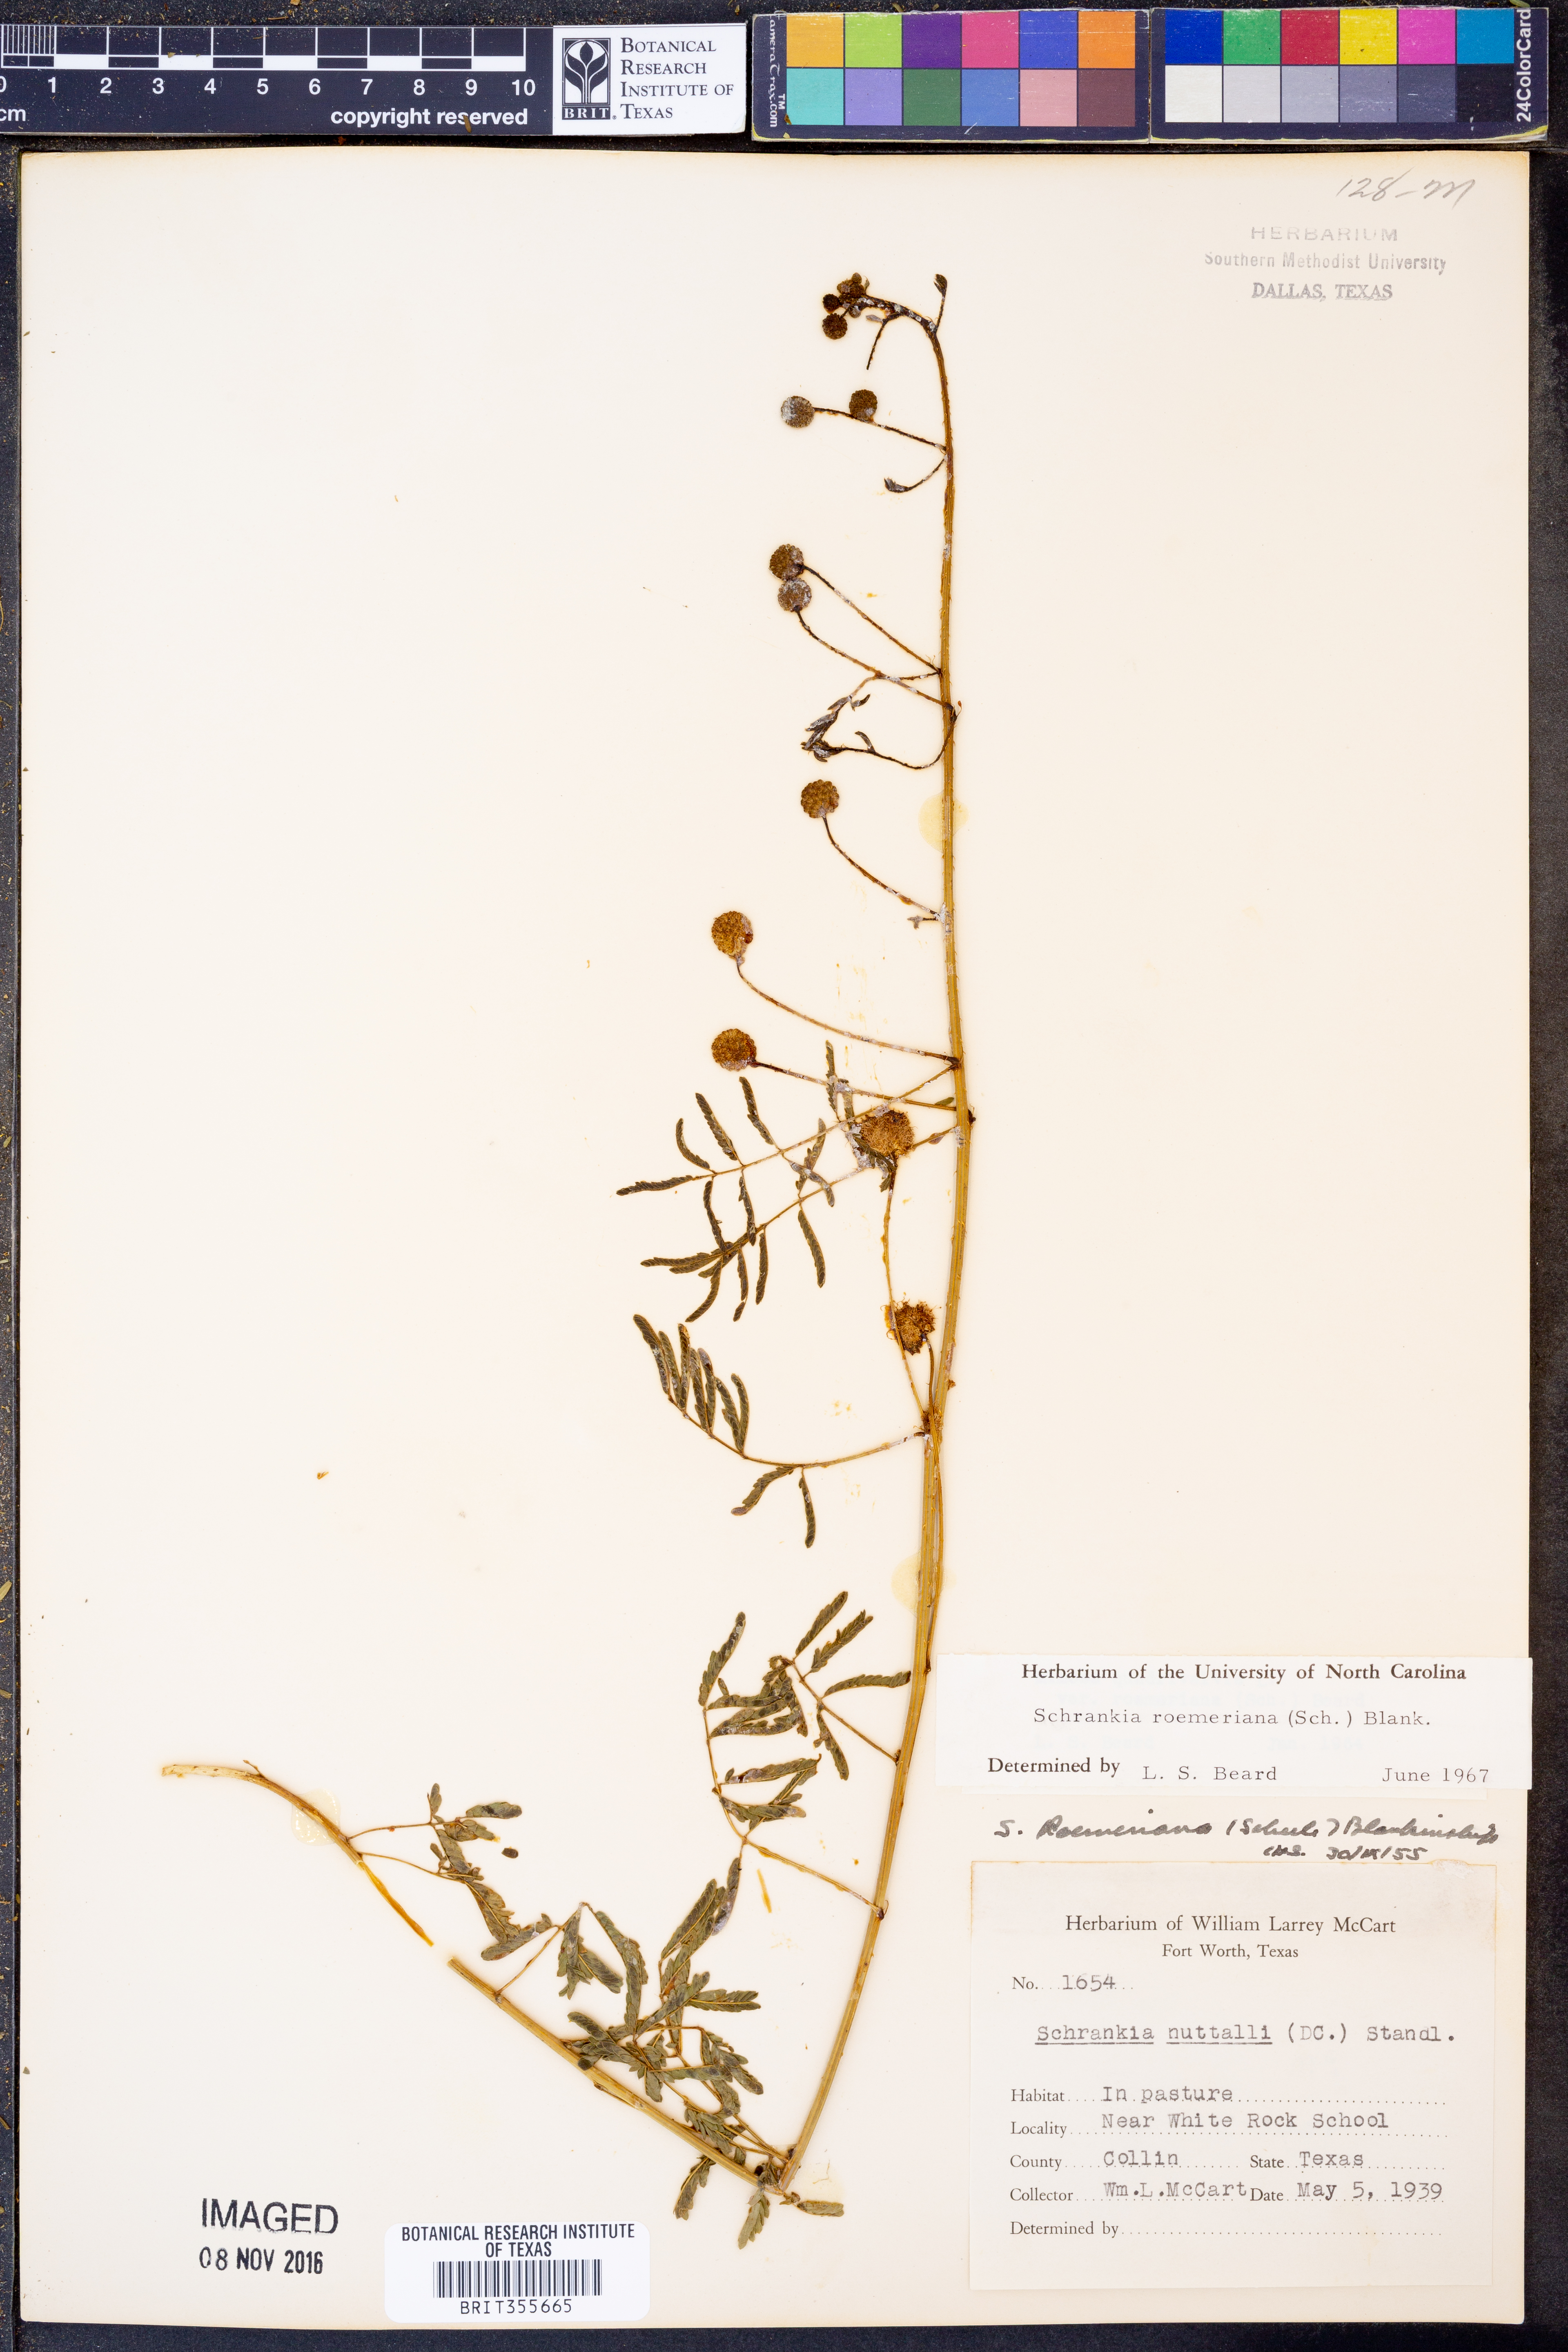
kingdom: Plantae
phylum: Tracheophyta
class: Magnoliopsida
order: Fabales
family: Fabaceae
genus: Mimosa
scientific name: Mimosa quadrivalvis
